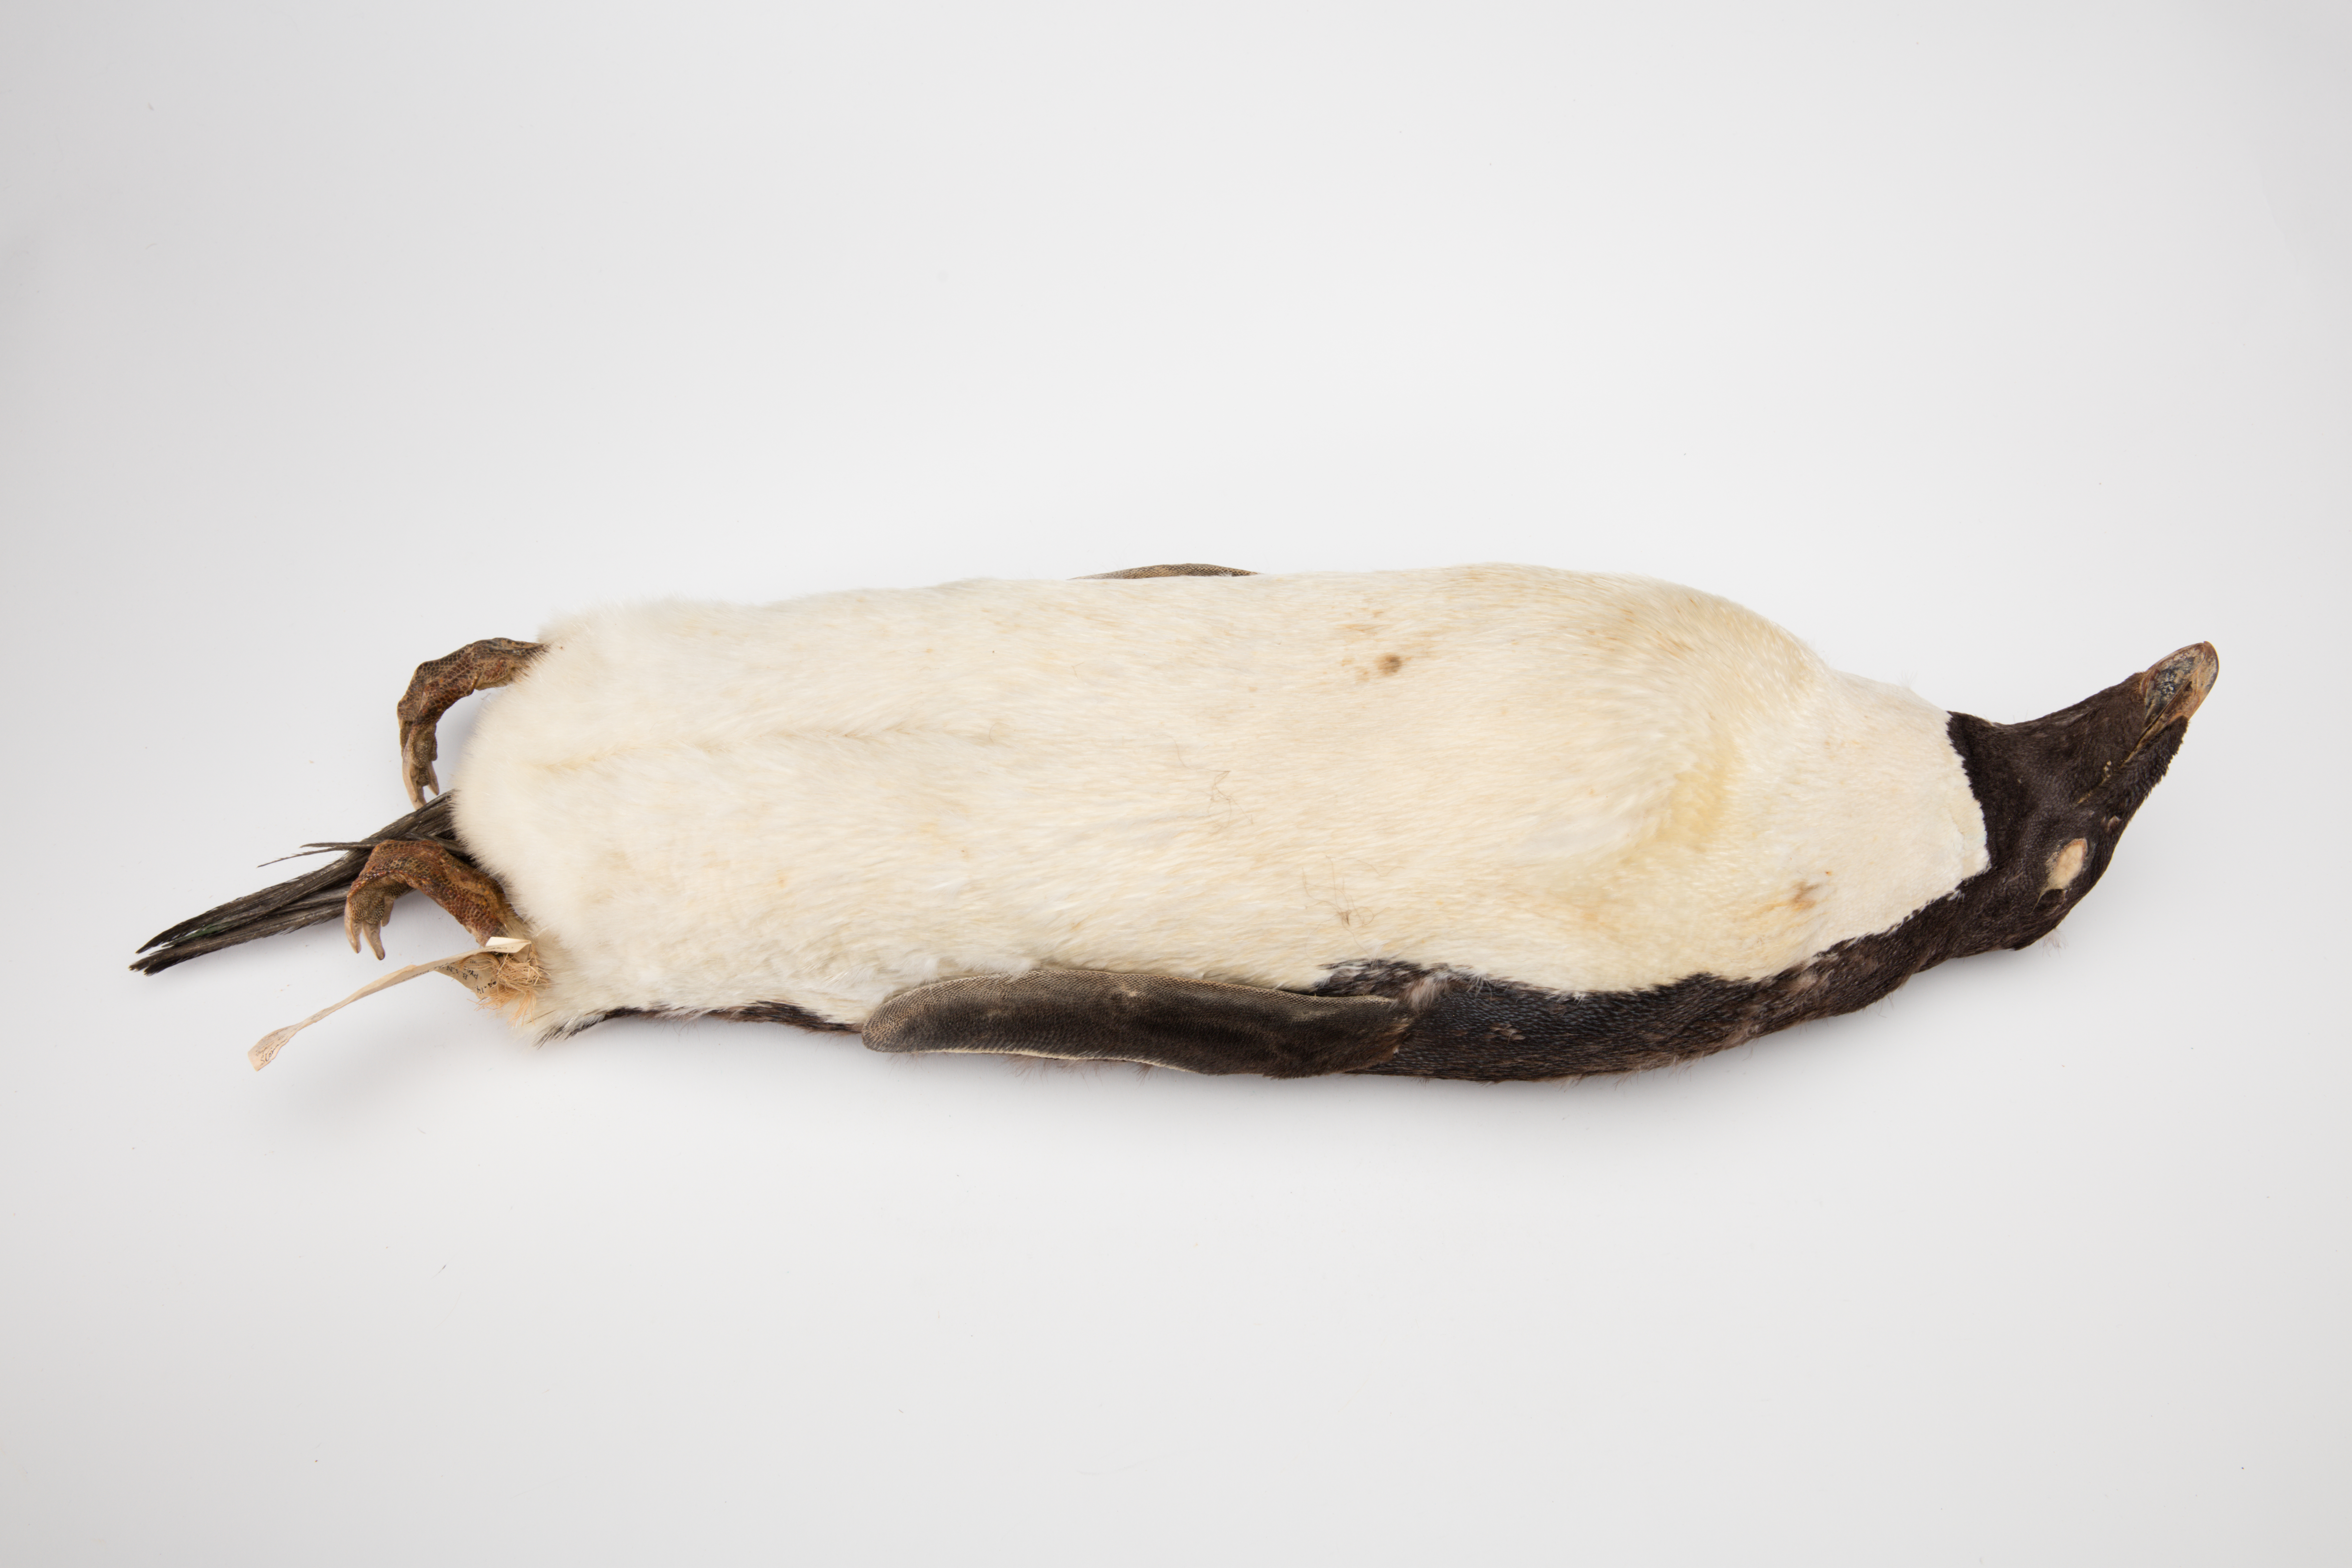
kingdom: Animalia
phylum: Chordata
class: Aves
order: Sphenisciformes
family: Spheniscidae
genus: Pygoscelis
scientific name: Pygoscelis adeliae
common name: Adelie penguin
